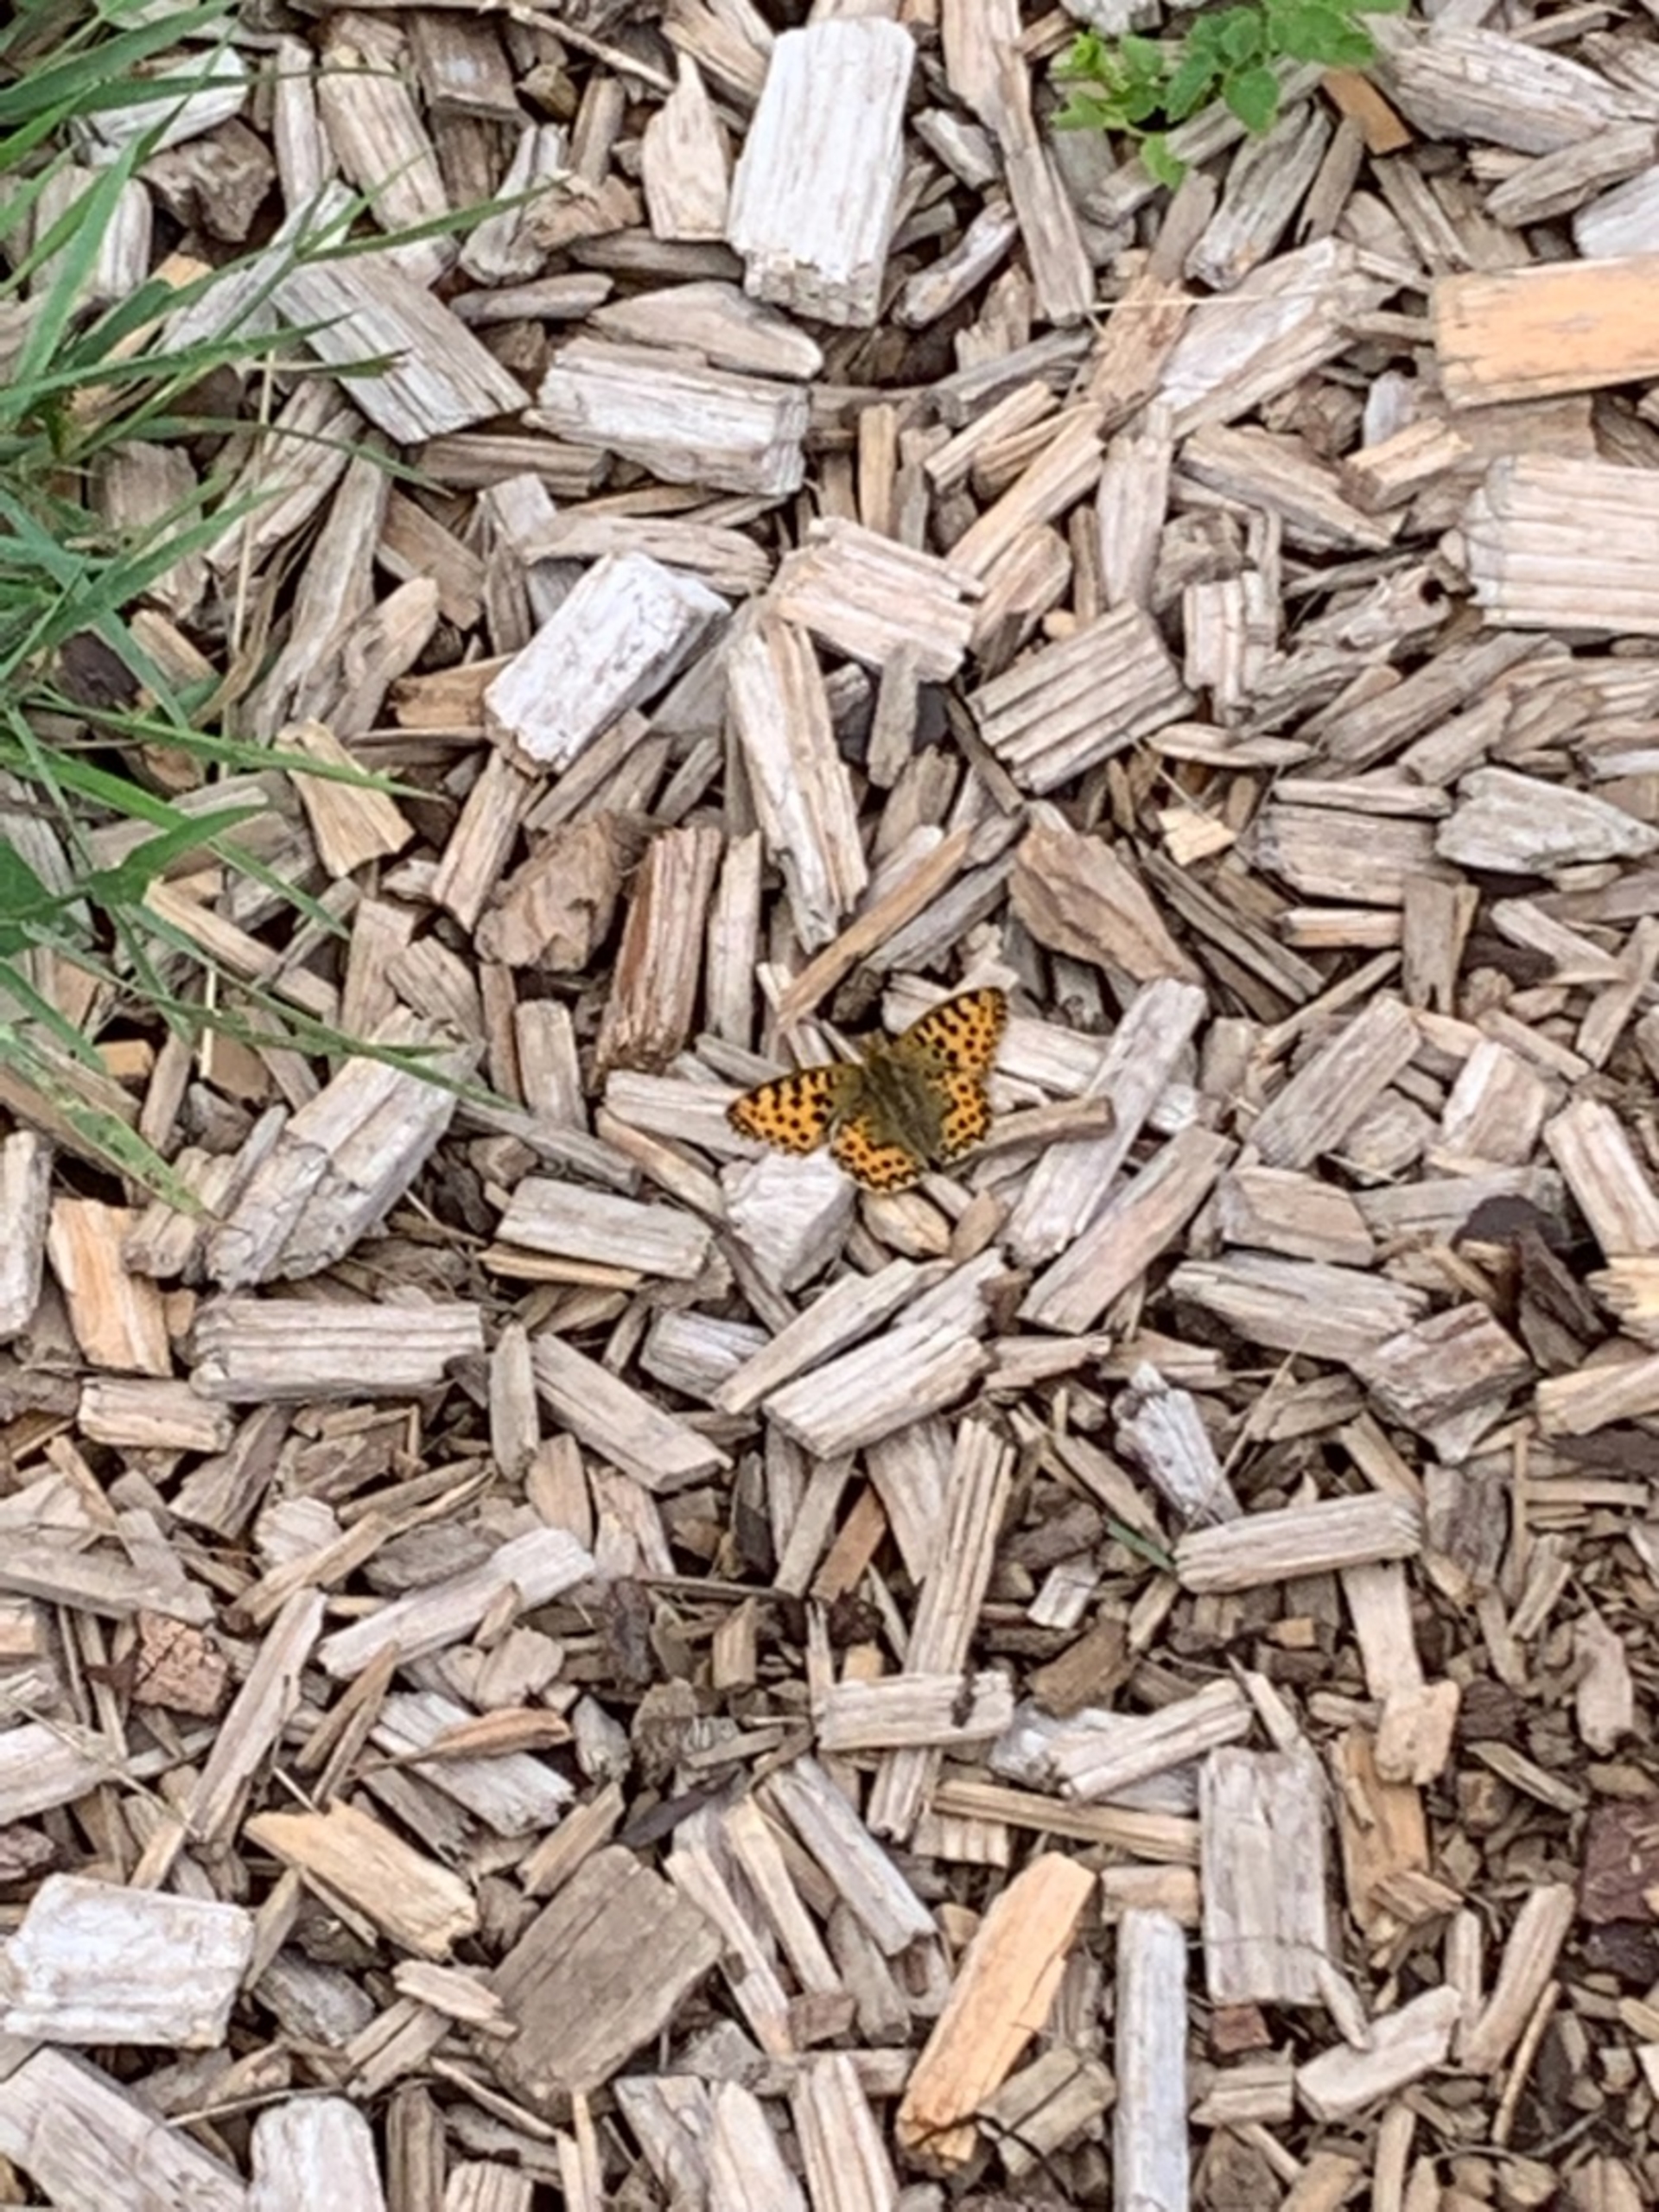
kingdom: Animalia
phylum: Arthropoda
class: Insecta
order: Lepidoptera
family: Nymphalidae
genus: Issoria
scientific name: Issoria lathonia
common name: Storplettet perlemorsommerfugl
